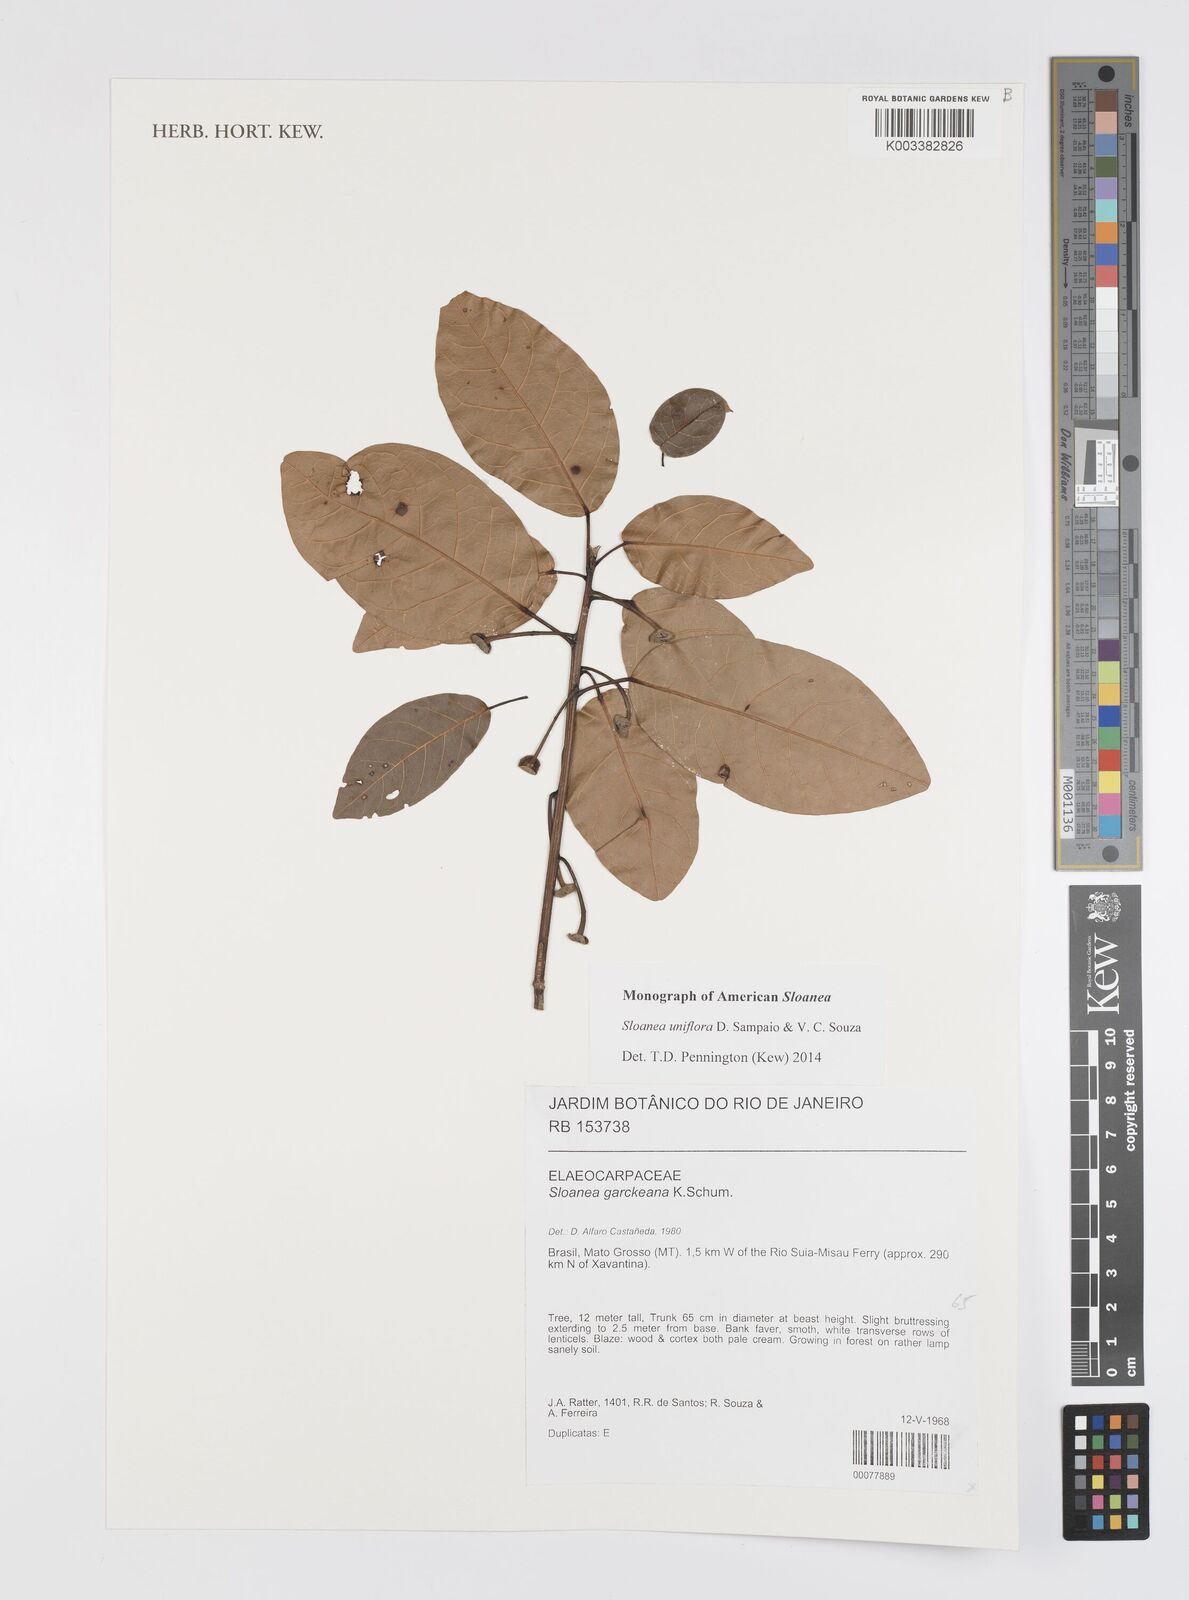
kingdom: Plantae
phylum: Tracheophyta
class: Magnoliopsida
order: Oxalidales
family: Elaeocarpaceae
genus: Sloanea
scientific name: Sloanea uniflora
